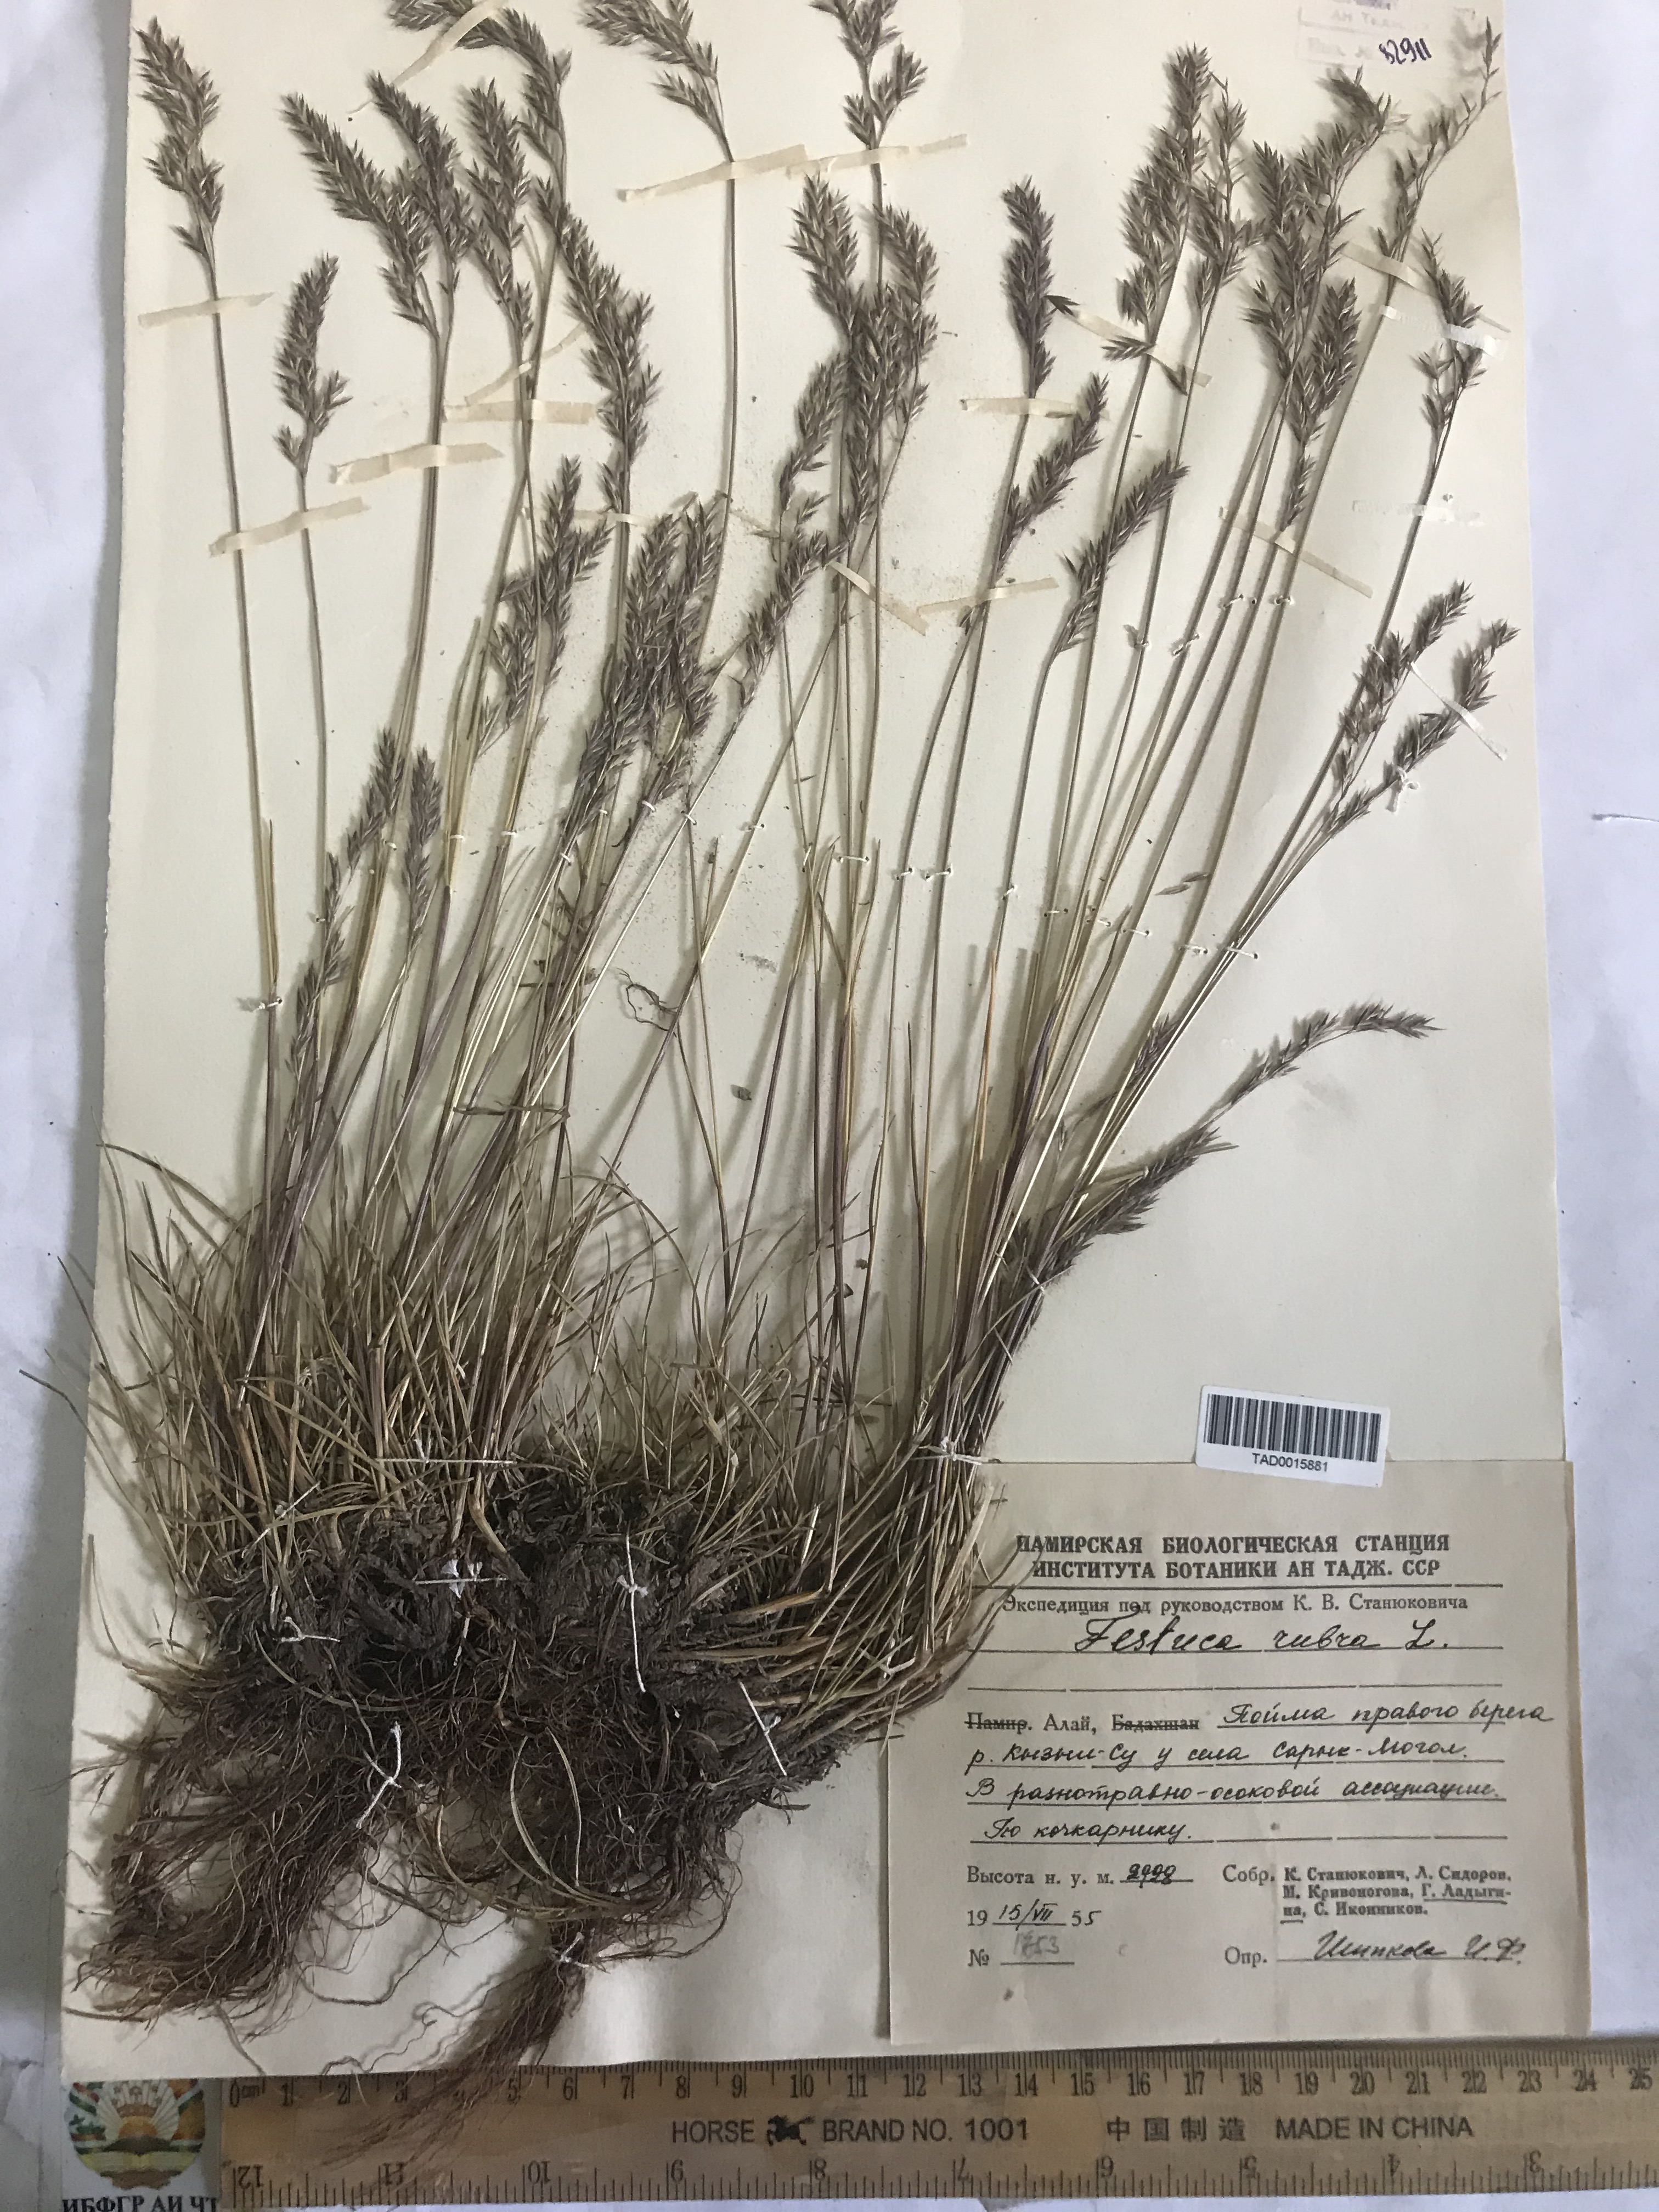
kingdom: Plantae
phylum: Tracheophyta
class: Liliopsida
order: Poales
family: Poaceae
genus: Festuca
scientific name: Festuca rubra
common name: Red fescue
